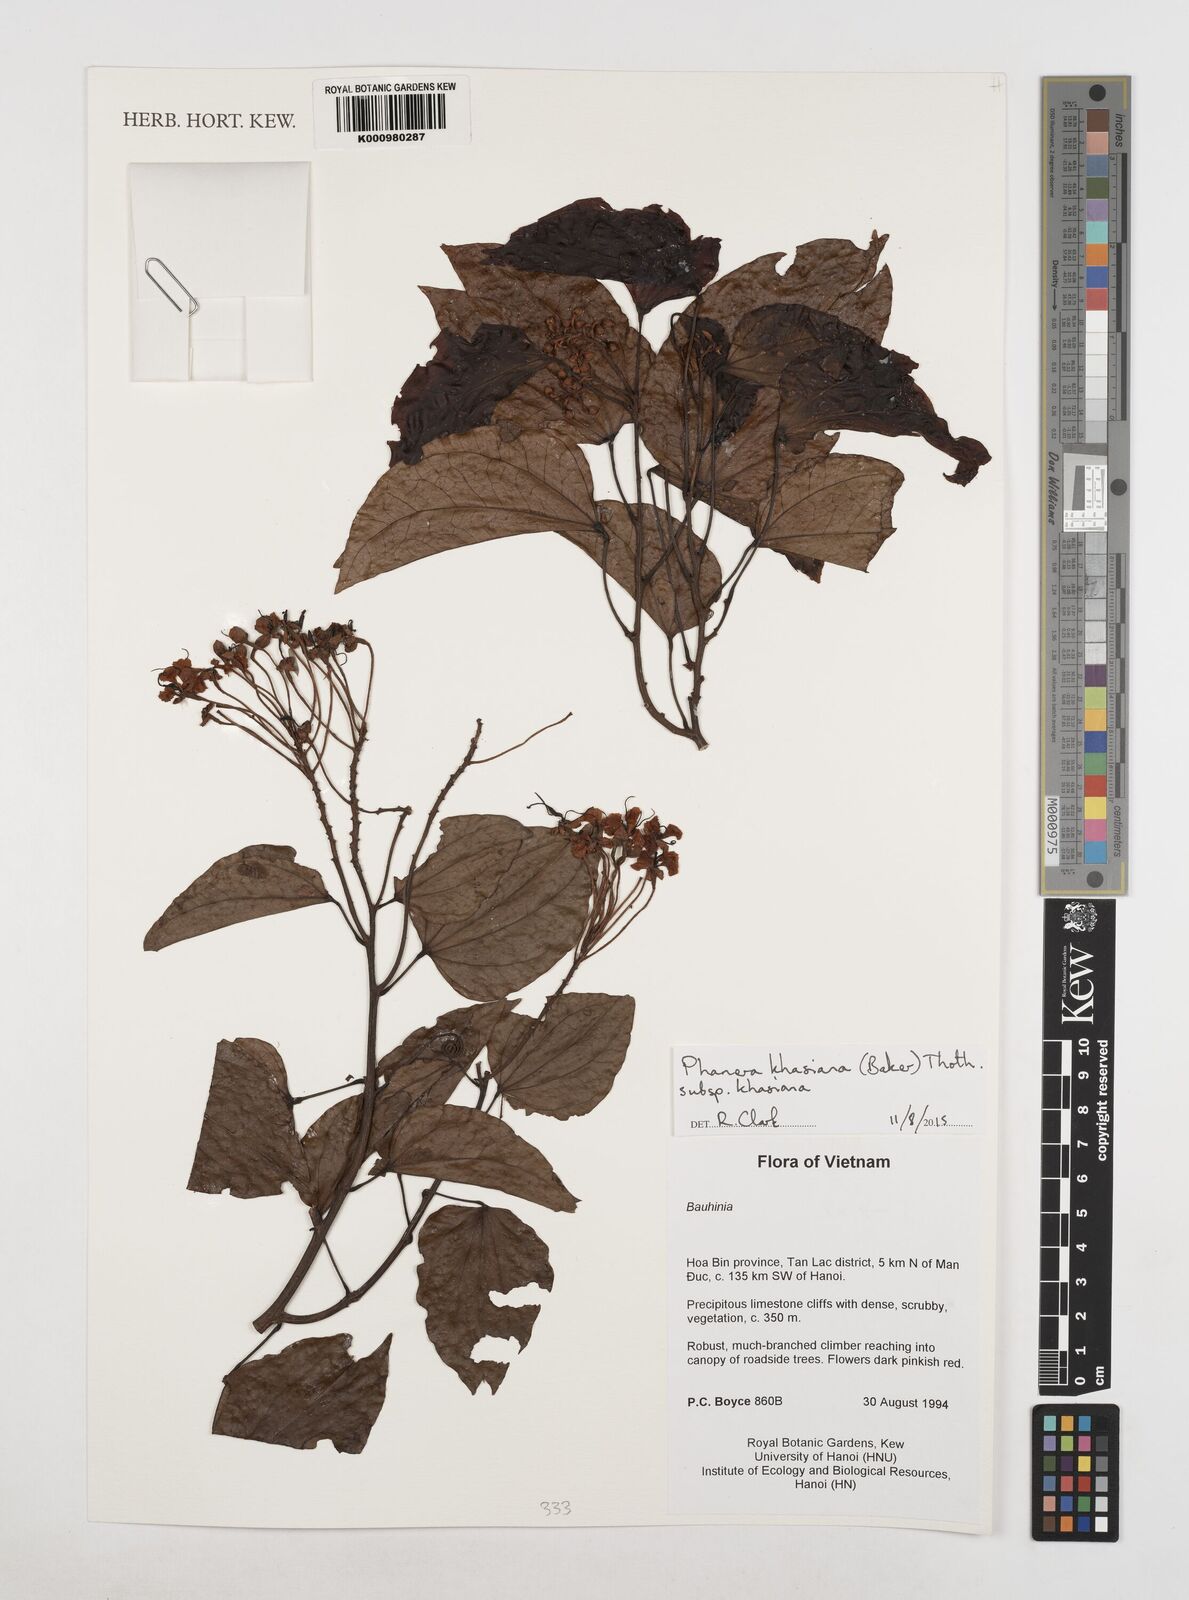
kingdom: Plantae
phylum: Tracheophyta
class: Magnoliopsida
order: Fabales
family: Fabaceae
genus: Phanera
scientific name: Phanera khasiana
